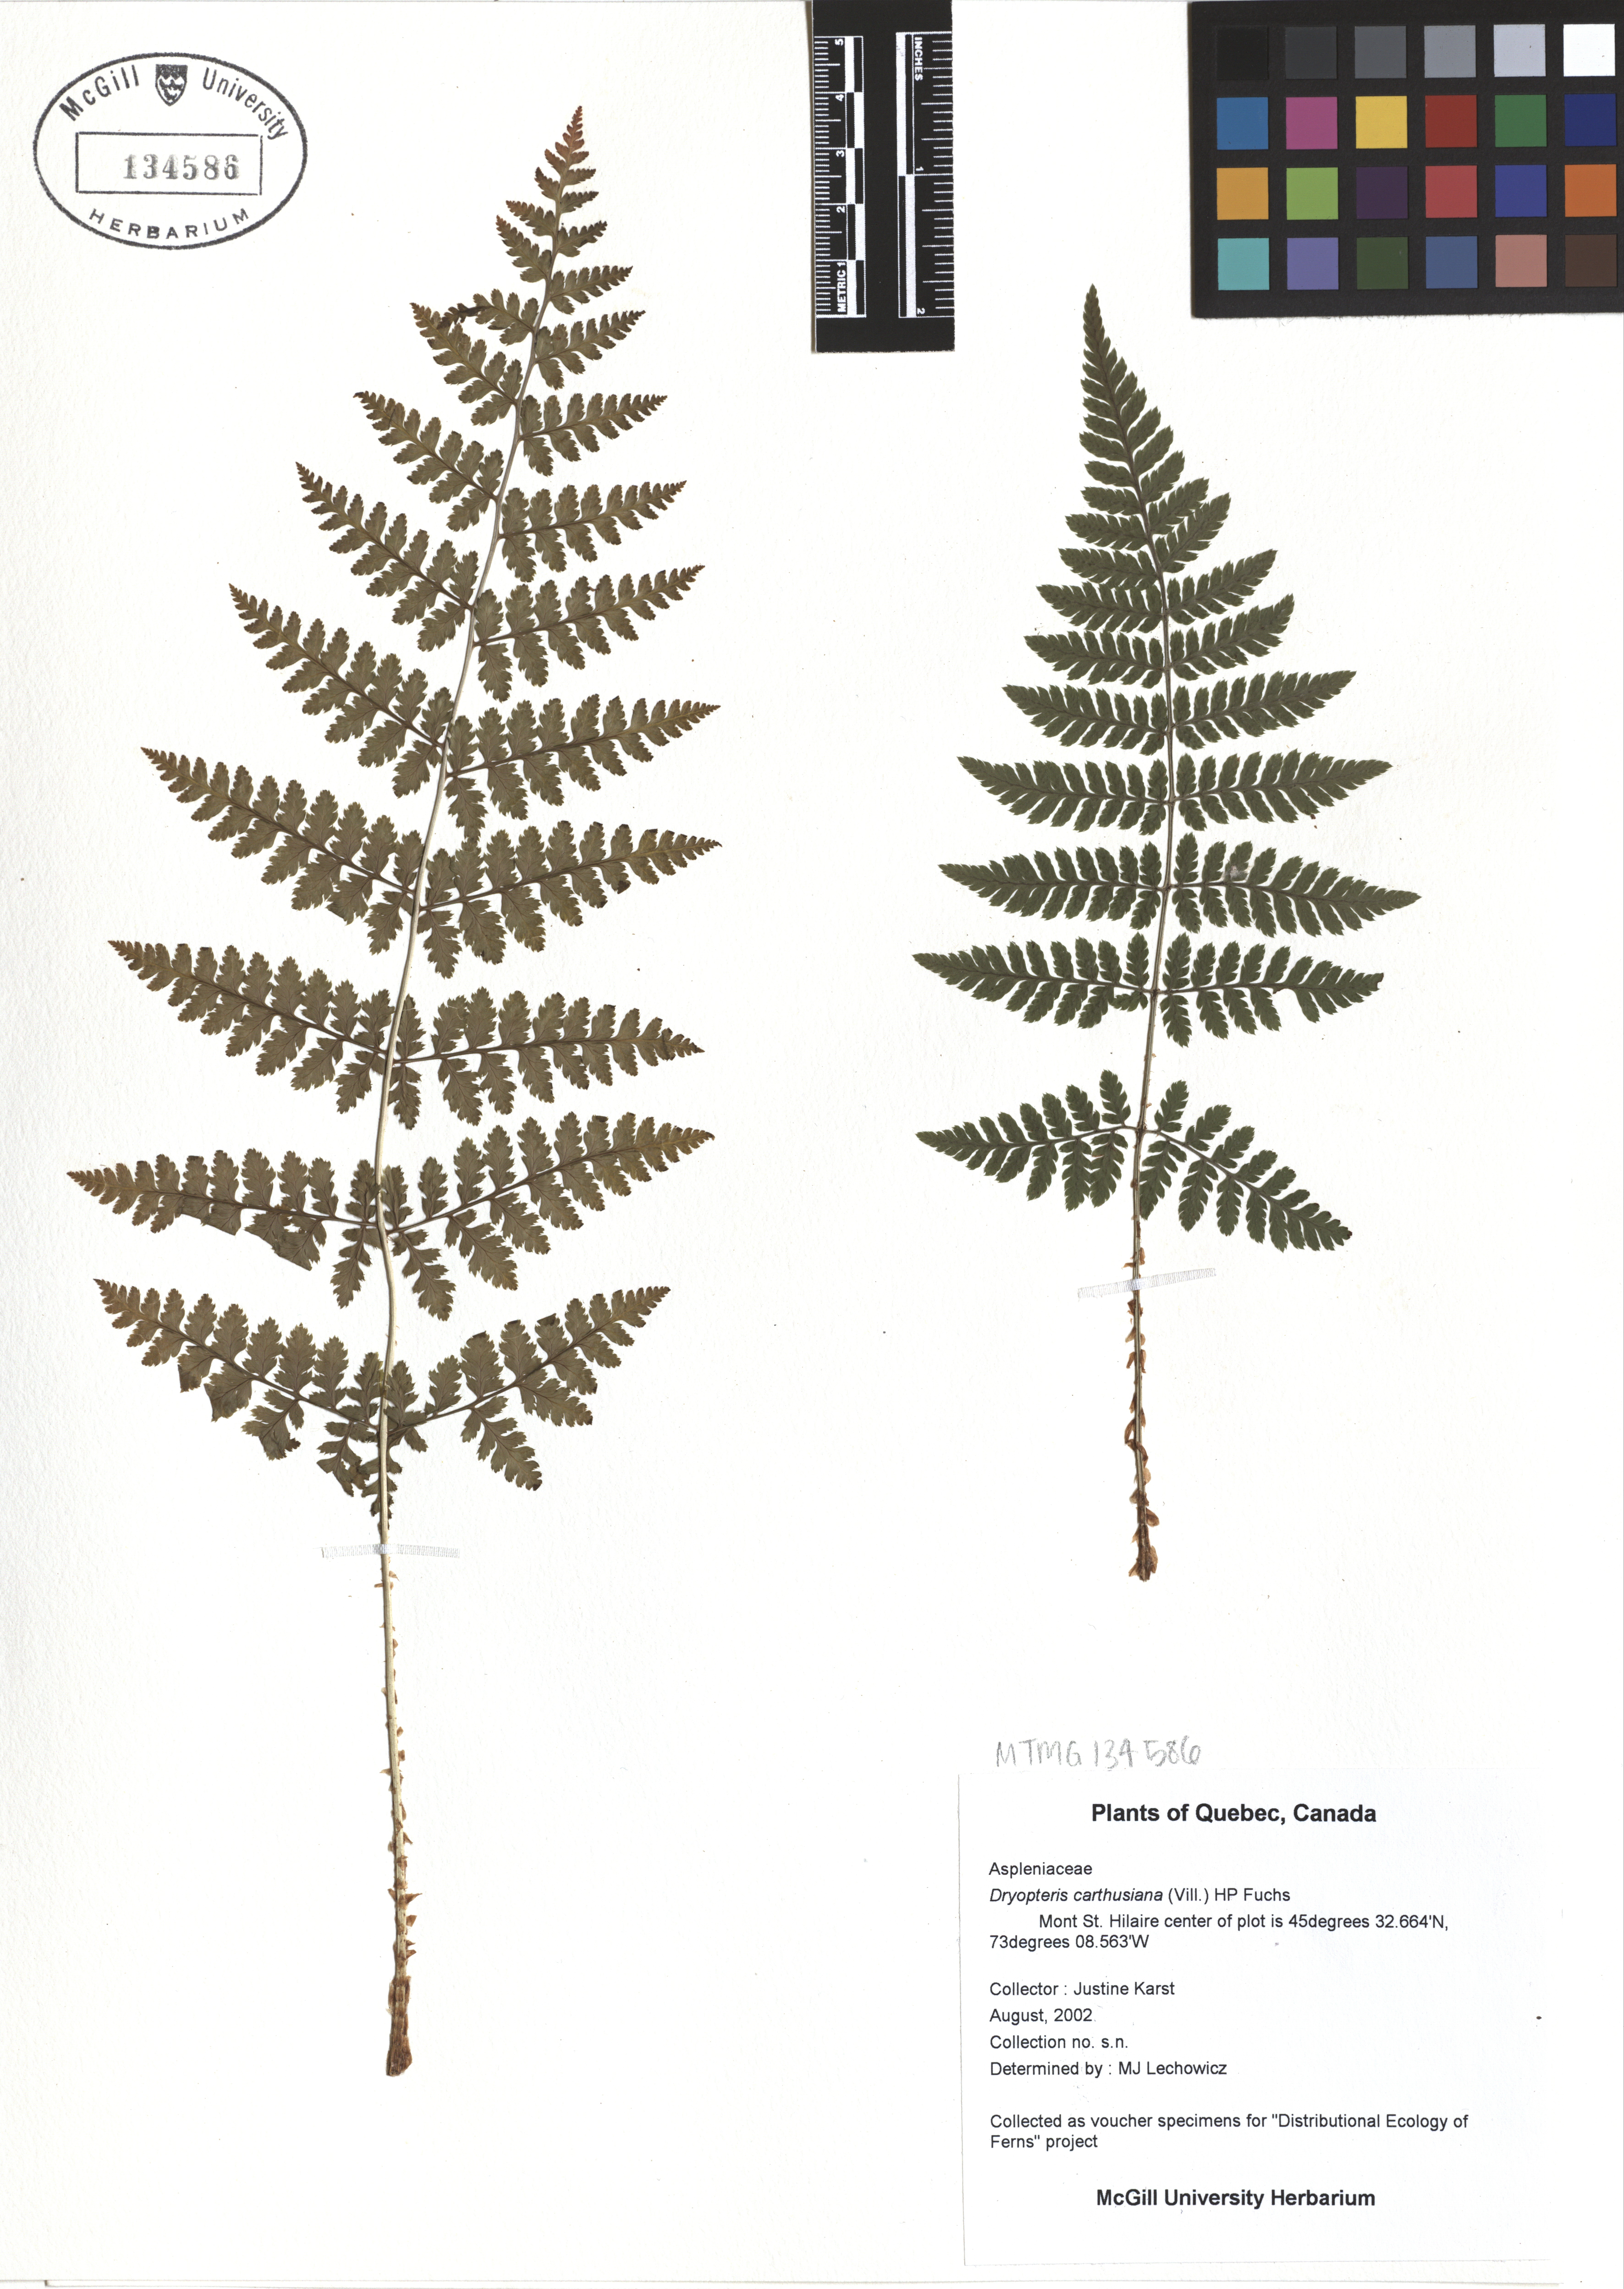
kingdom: Plantae
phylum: Tracheophyta
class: Polypodiopsida
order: Polypodiales
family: Dryopteridaceae
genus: Dryopteris
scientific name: Dryopteris carthusiana
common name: Narrow buckler-fern
